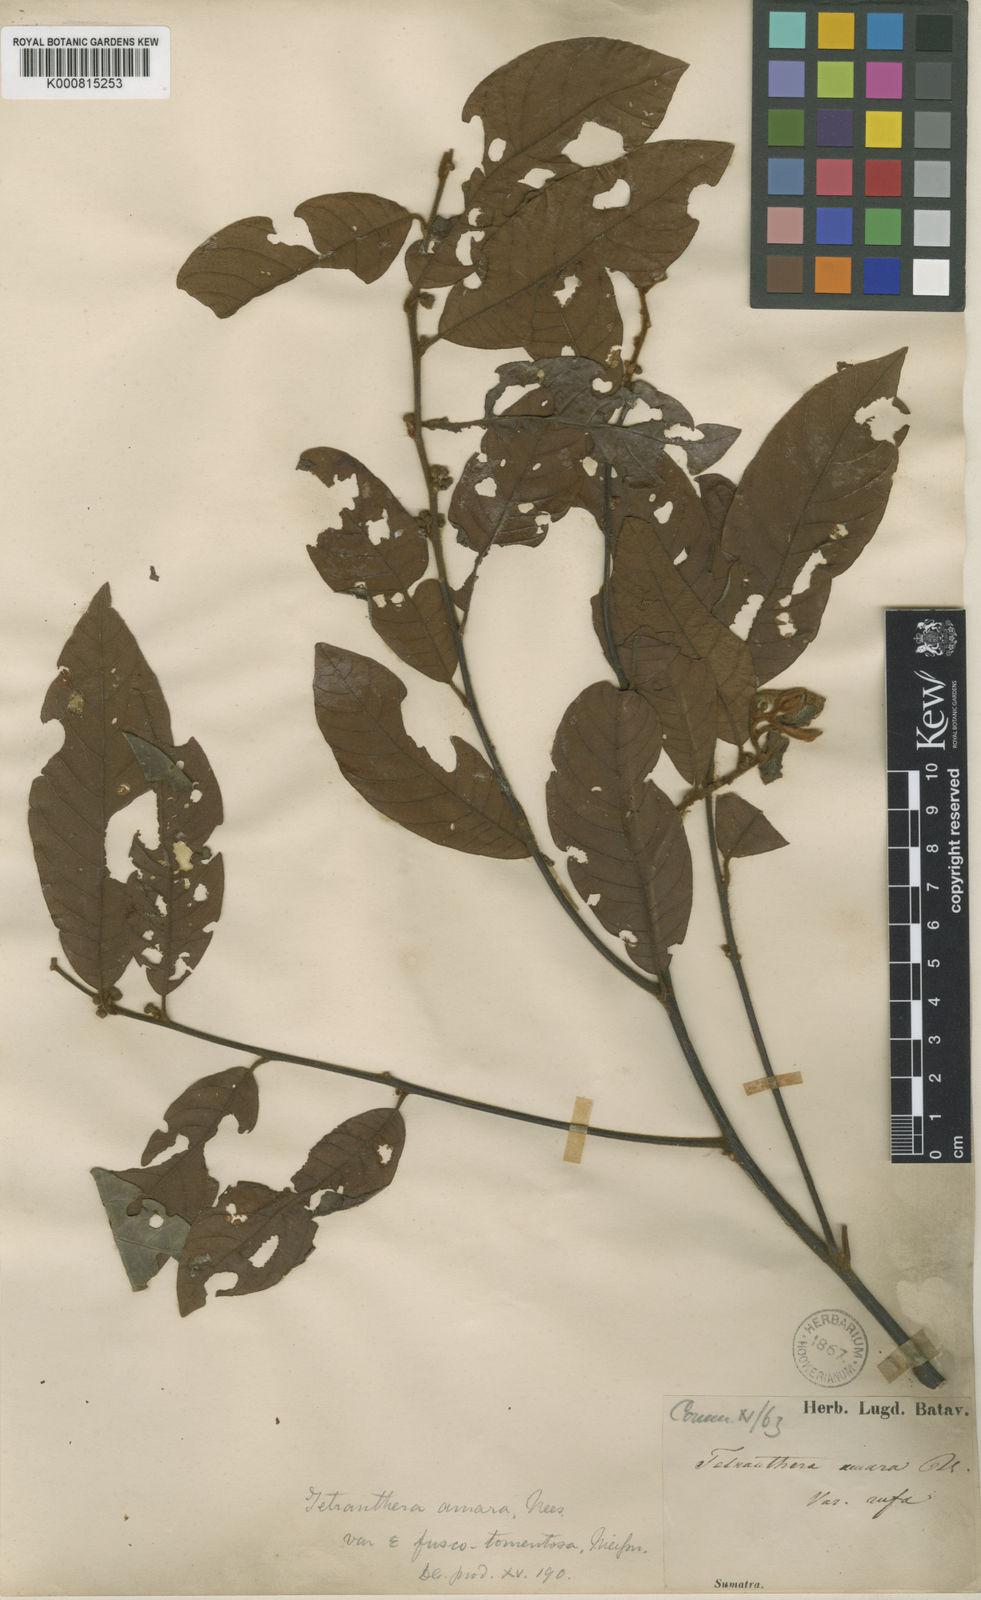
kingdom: Plantae
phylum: Tracheophyta
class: Magnoliopsida
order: Laurales
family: Lauraceae
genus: Litsea
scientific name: Litsea umbellata
